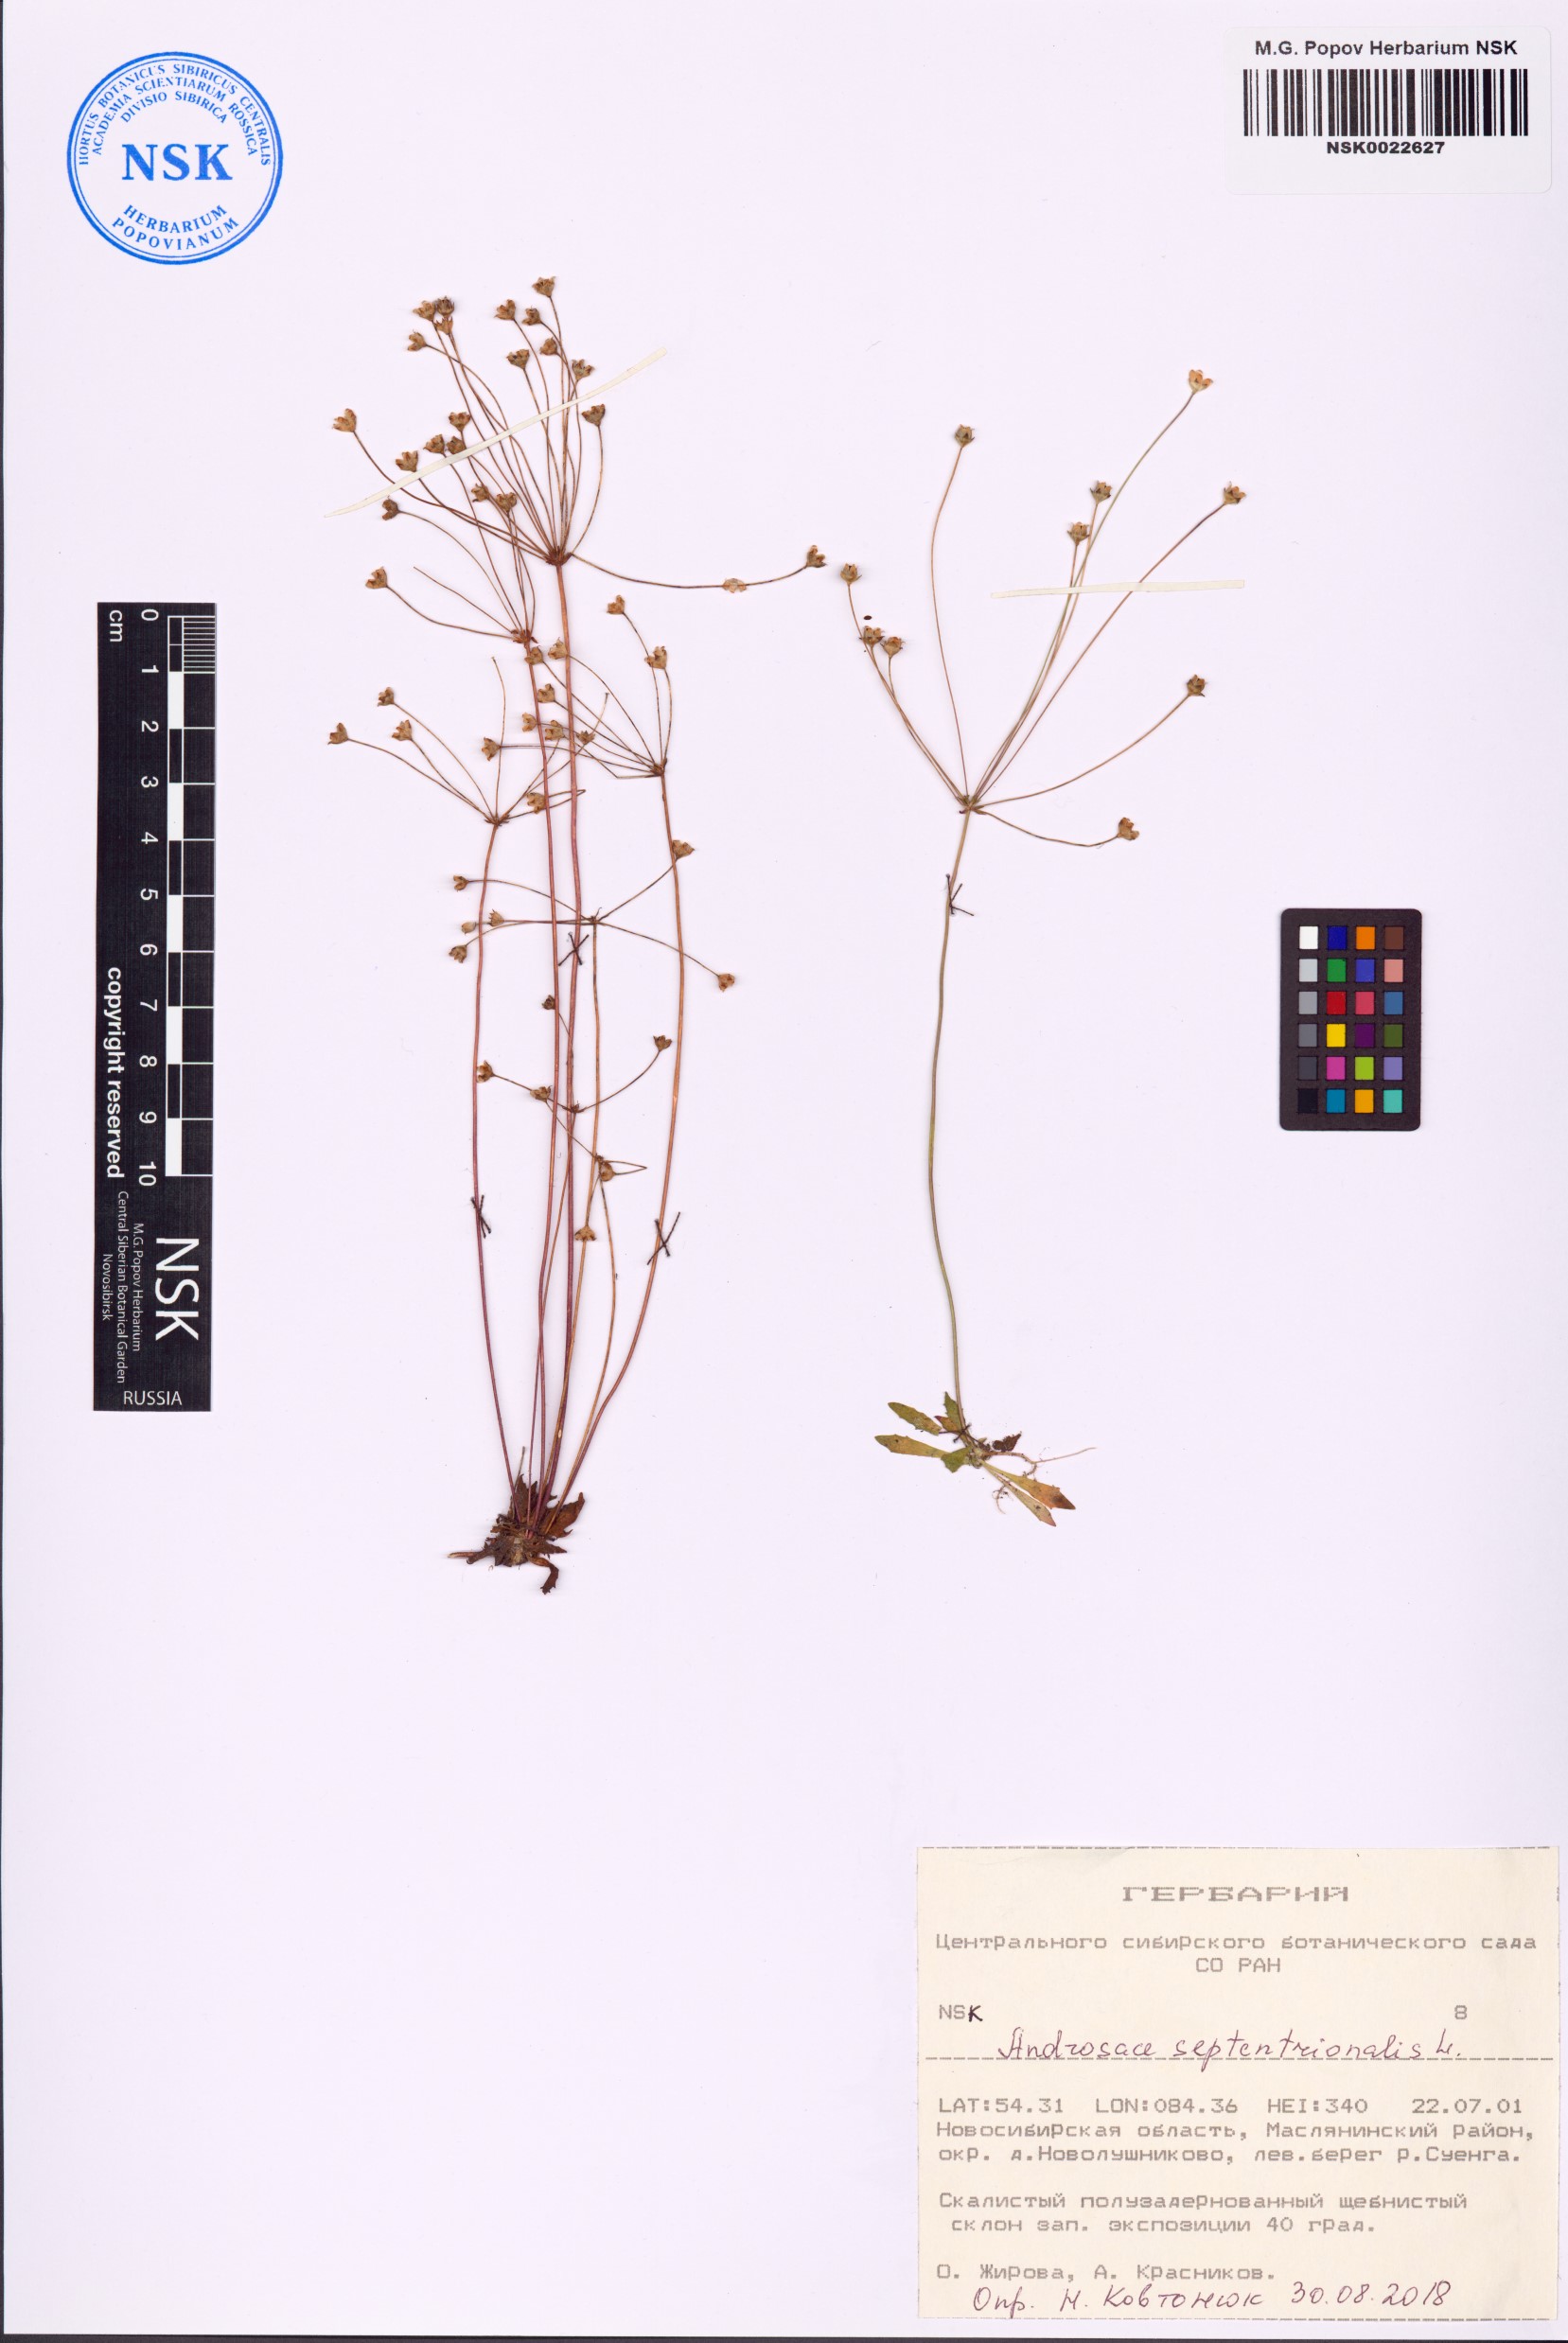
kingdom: Plantae
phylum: Tracheophyta
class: Magnoliopsida
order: Ericales
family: Primulaceae
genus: Androsace
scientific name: Androsace septentrionalis
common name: Hairy northern fairy-candelabra
